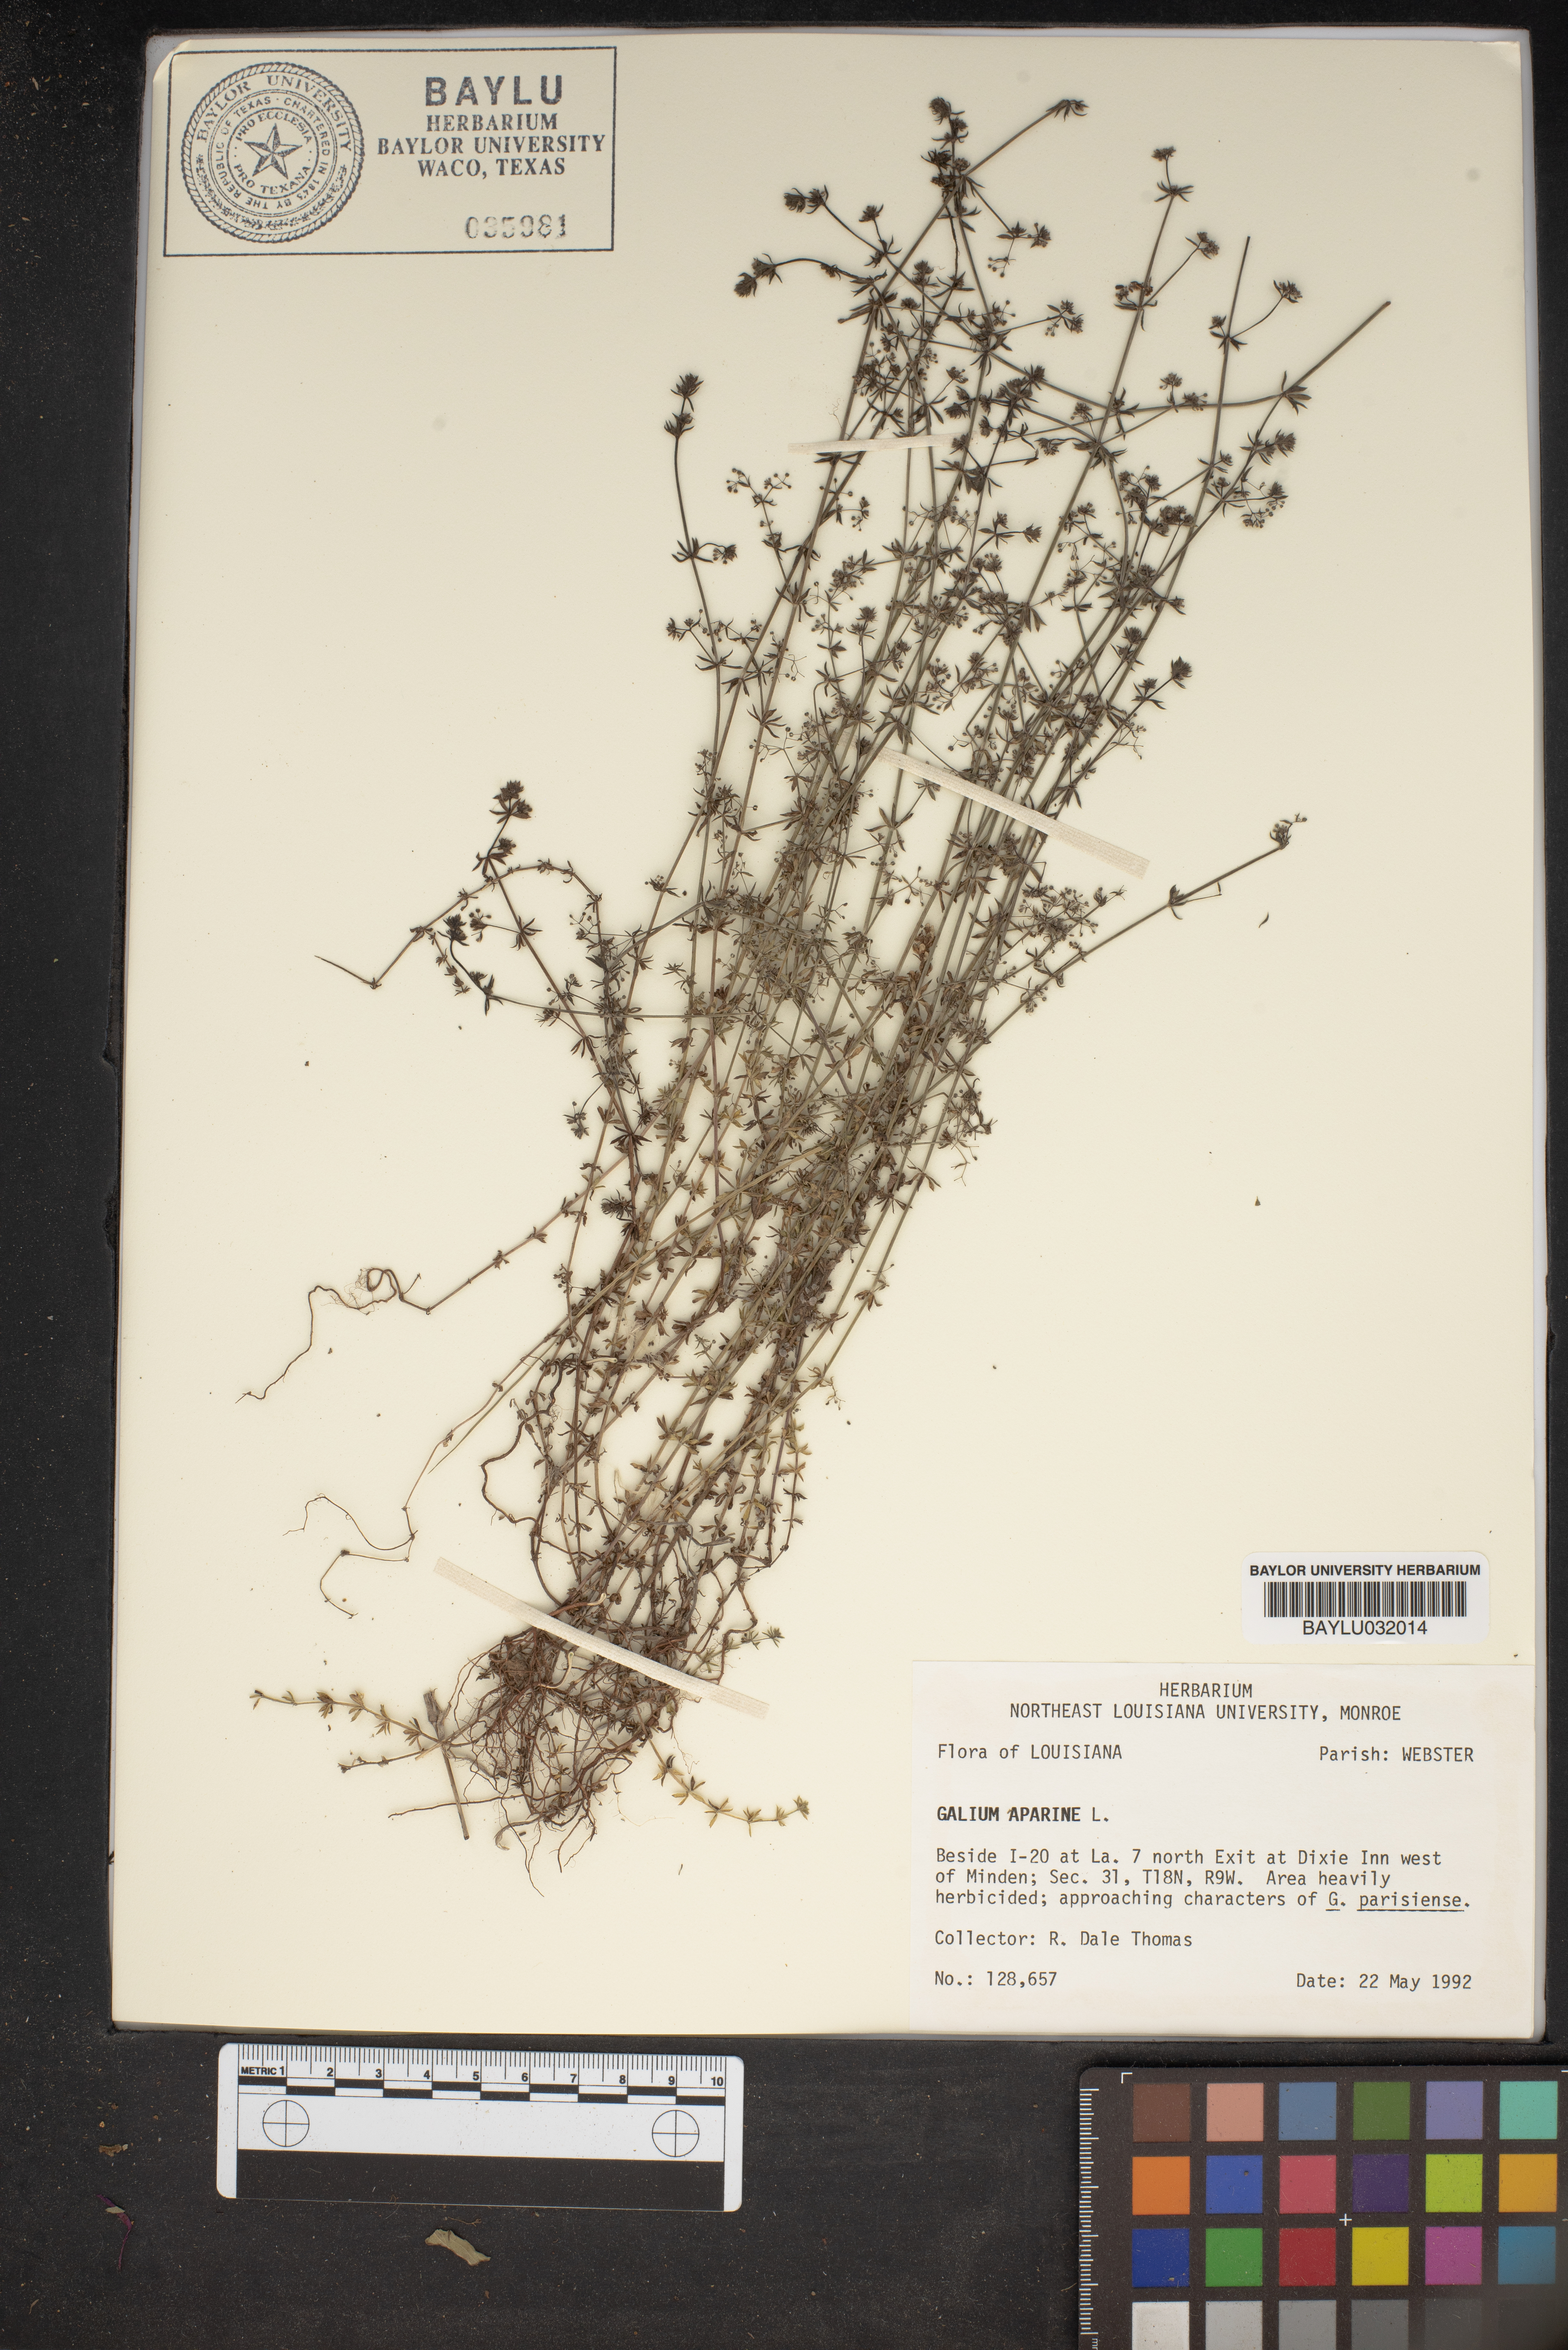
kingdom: Plantae
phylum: Tracheophyta
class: Magnoliopsida
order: Gentianales
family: Rubiaceae
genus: Galium
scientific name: Galium aparine
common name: Cleavers
